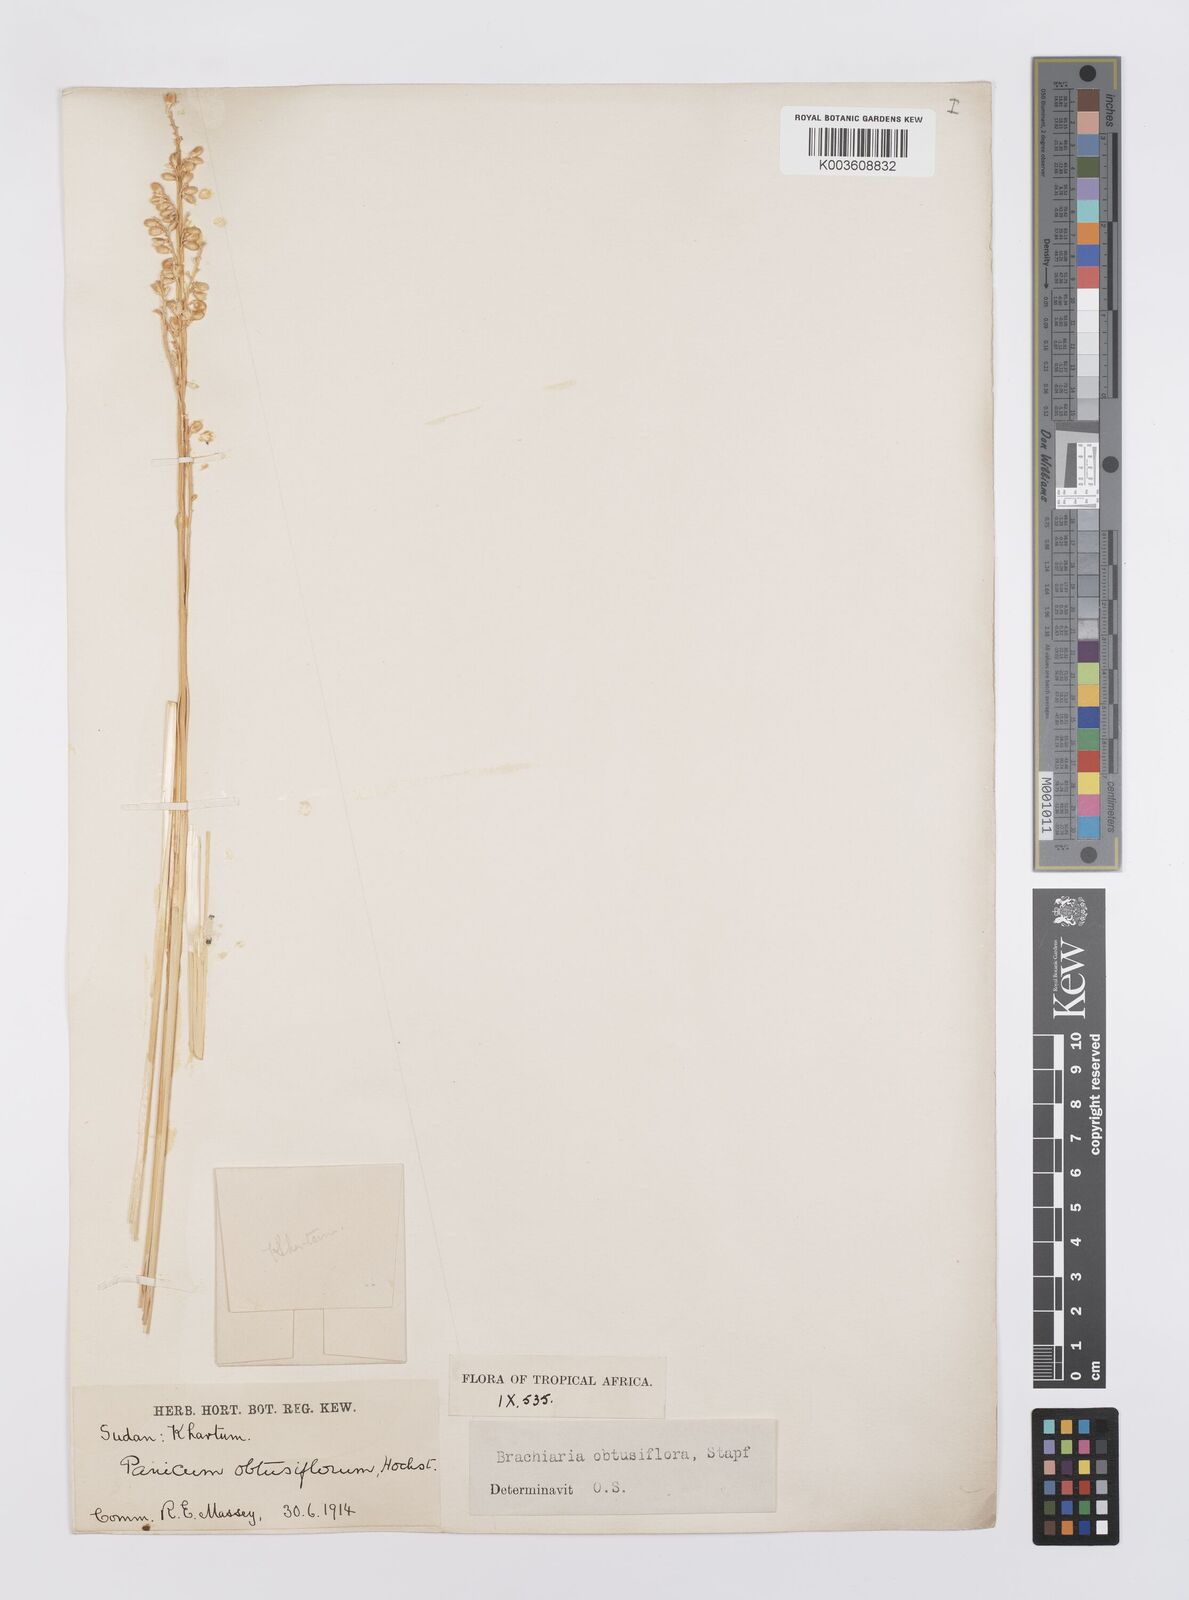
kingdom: Plantae
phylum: Tracheophyta
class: Liliopsida
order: Poales
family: Poaceae
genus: Echinochloa
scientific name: Echinochloa rotundiflora
